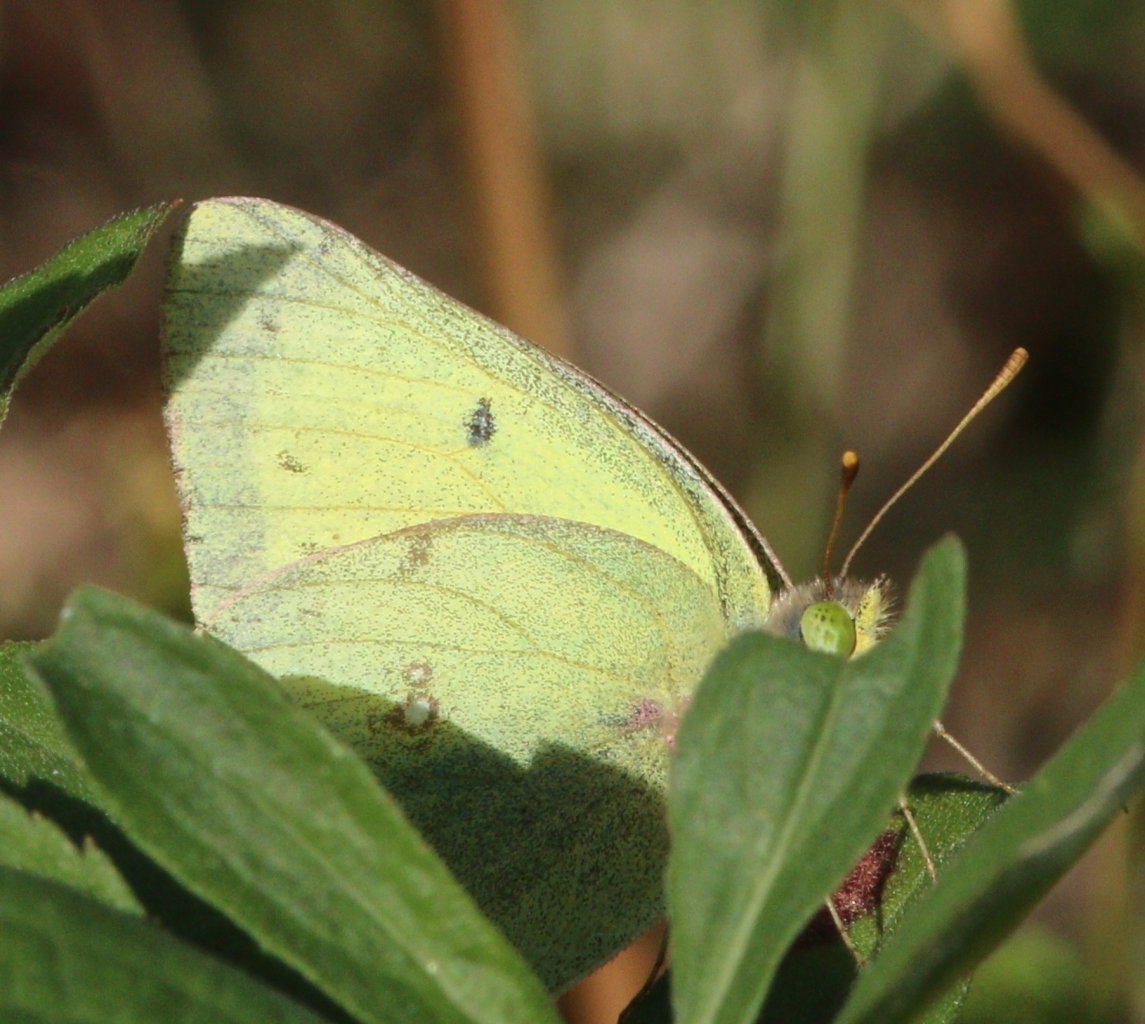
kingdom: Animalia
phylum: Arthropoda
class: Insecta
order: Lepidoptera
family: Pieridae
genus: Colias
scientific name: Colias philodice
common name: Clouded Sulphur
